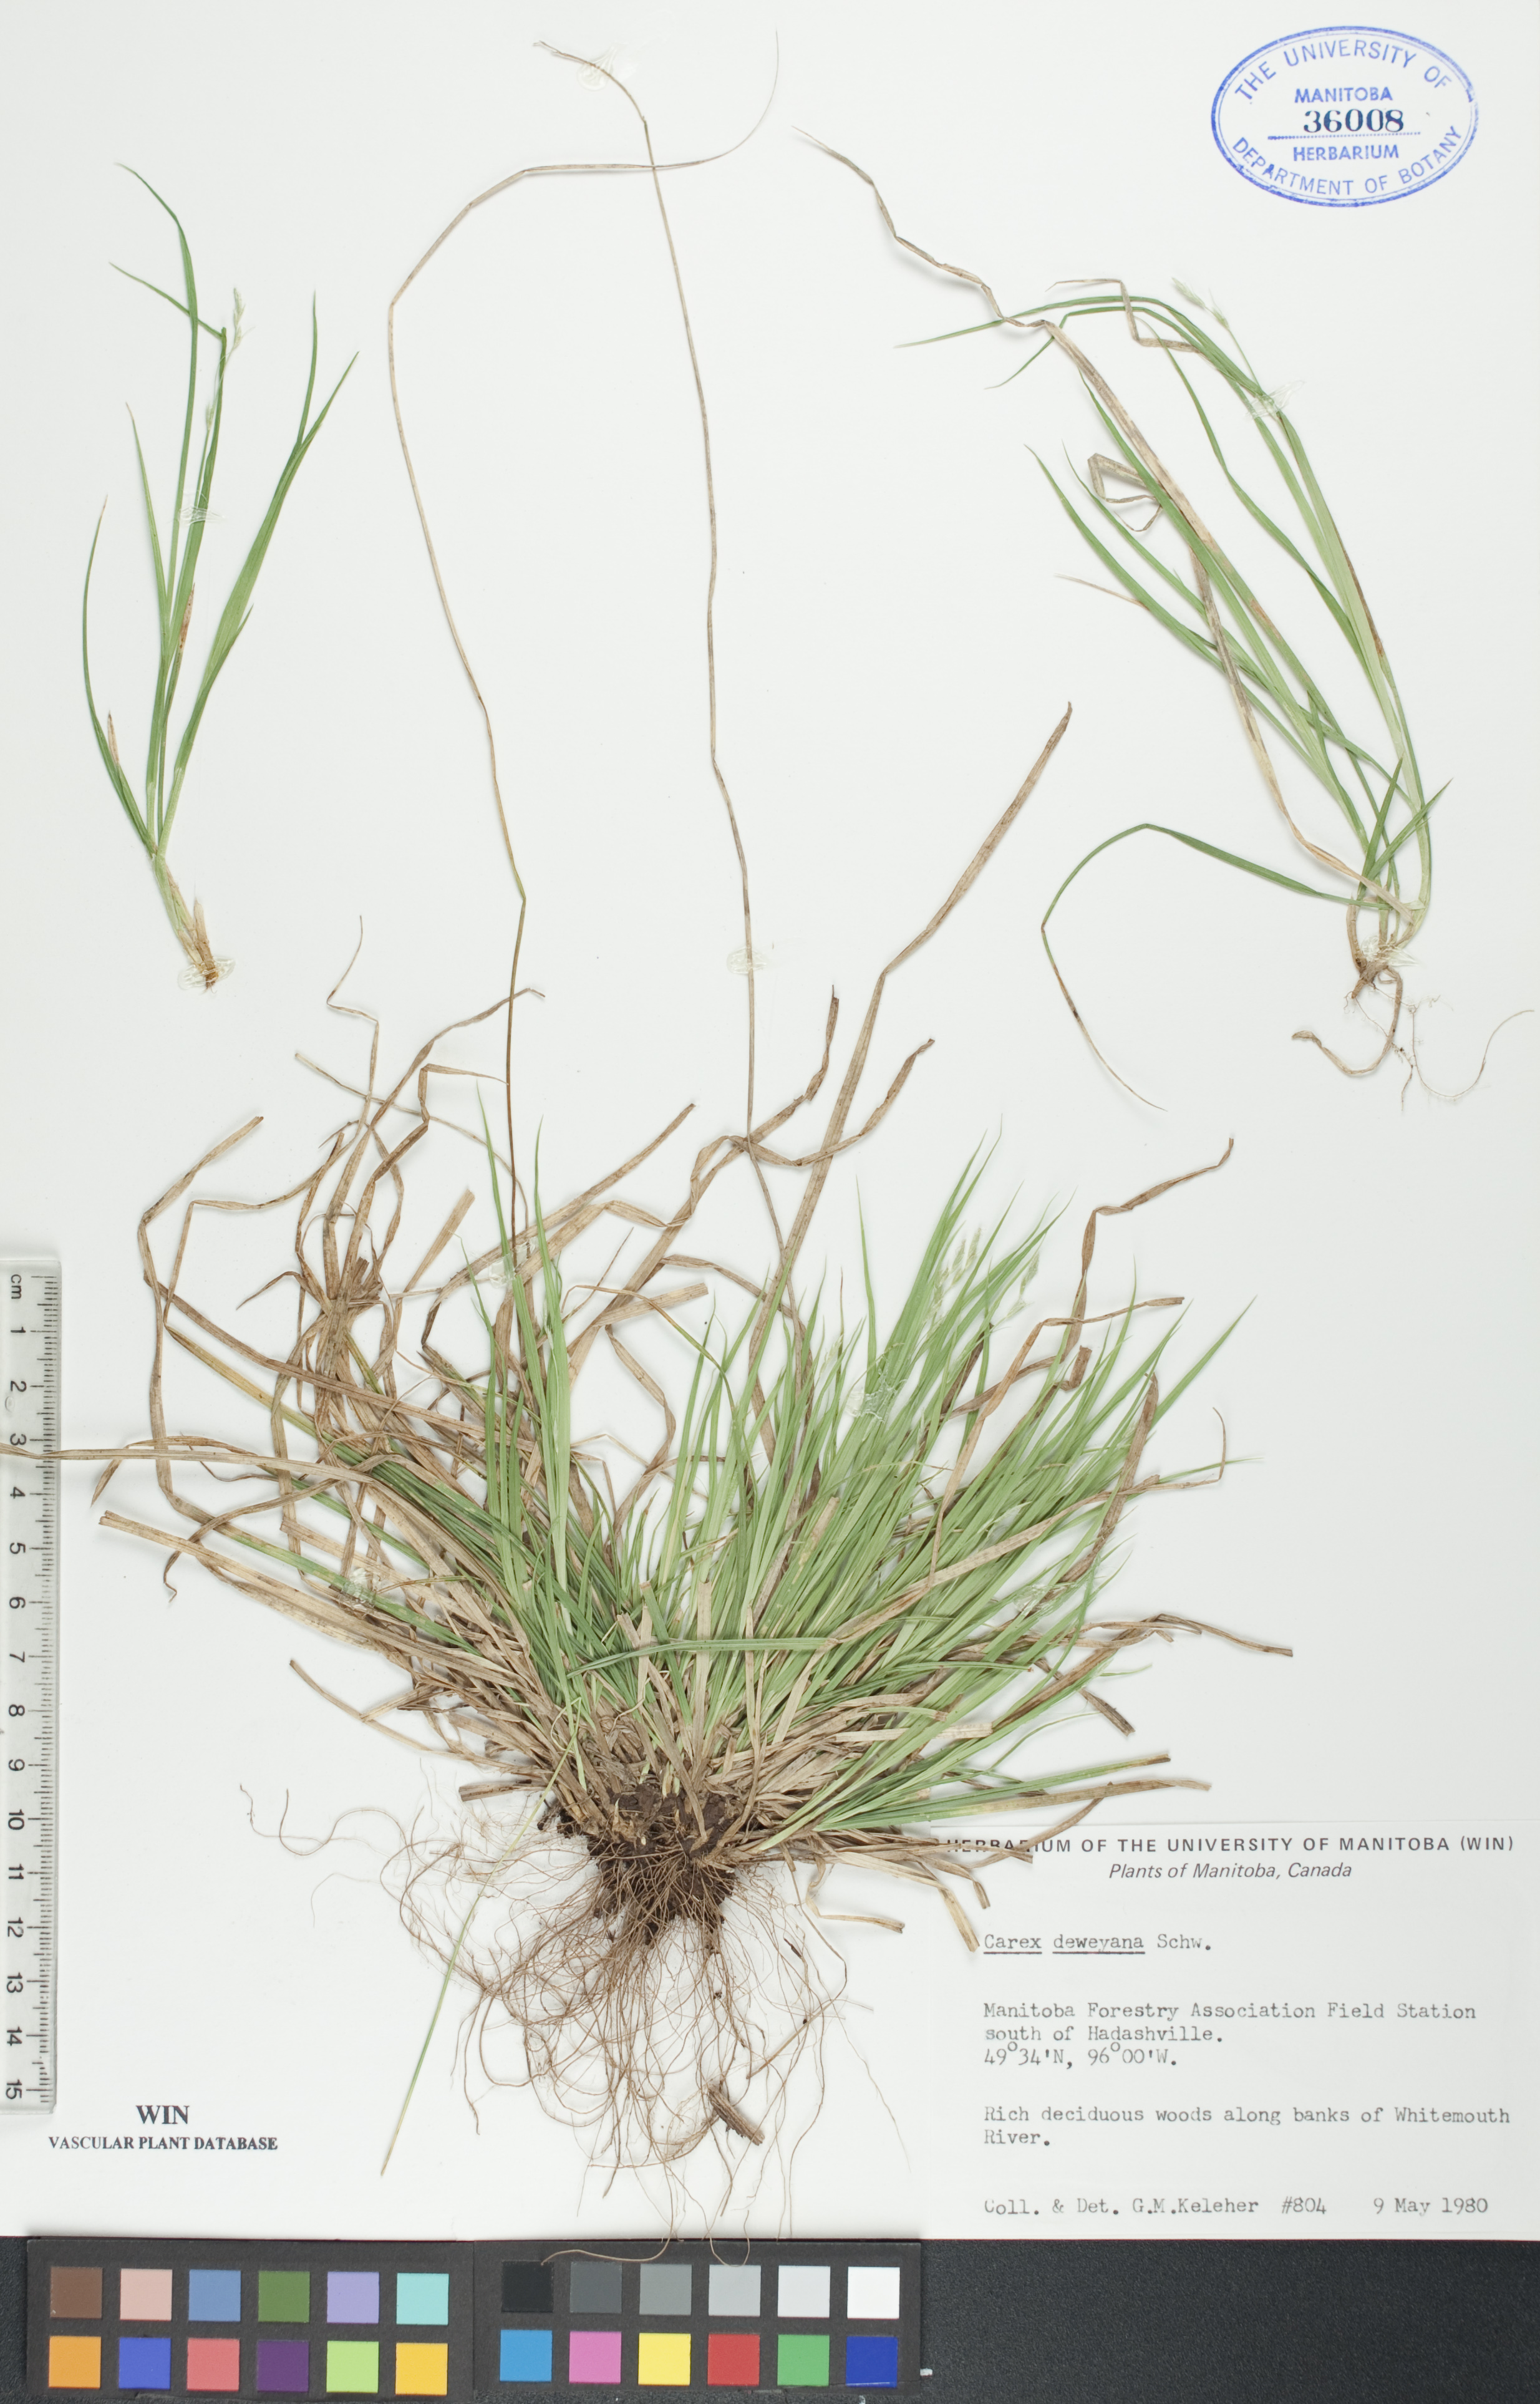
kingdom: Plantae
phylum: Tracheophyta
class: Liliopsida
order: Poales
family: Cyperaceae
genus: Carex
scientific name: Carex deweyana
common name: Dewey's sedge
